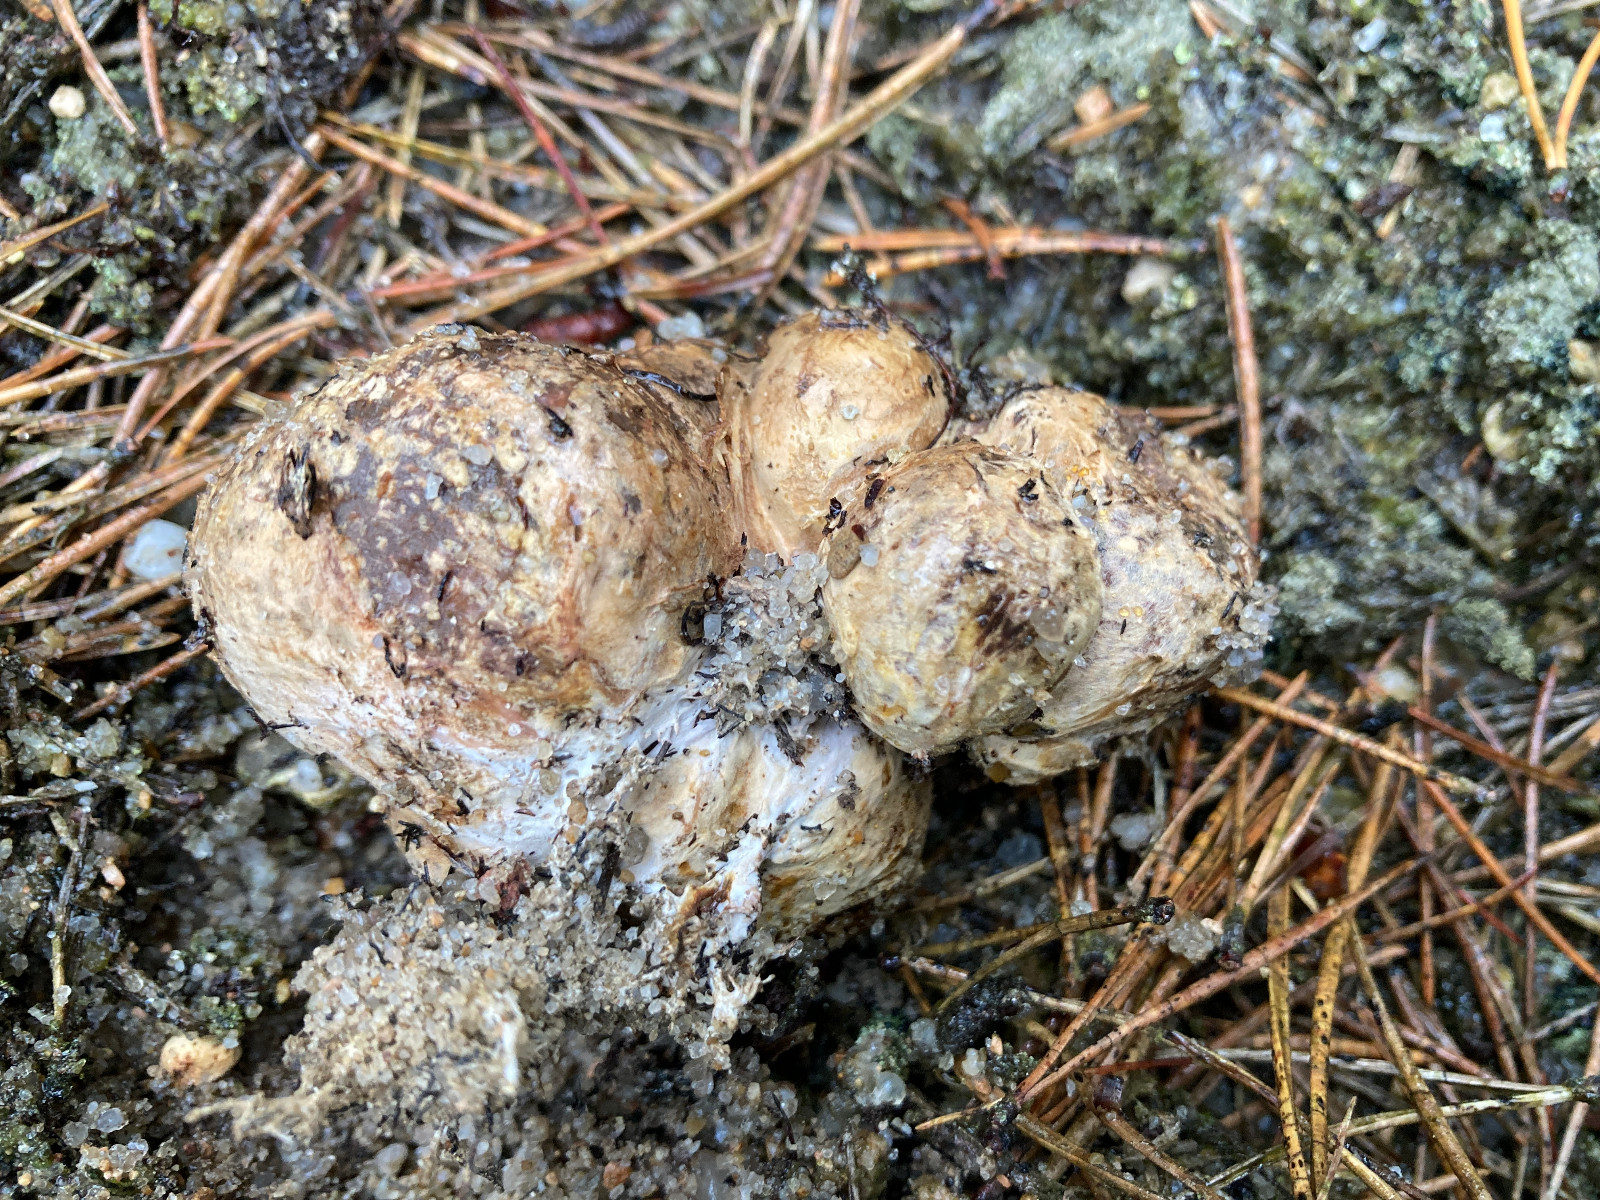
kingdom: Fungi
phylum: Basidiomycota
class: Agaricomycetes
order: Boletales
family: Rhizopogonaceae
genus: Rhizopogon
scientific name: Rhizopogon pseudoroseolus
